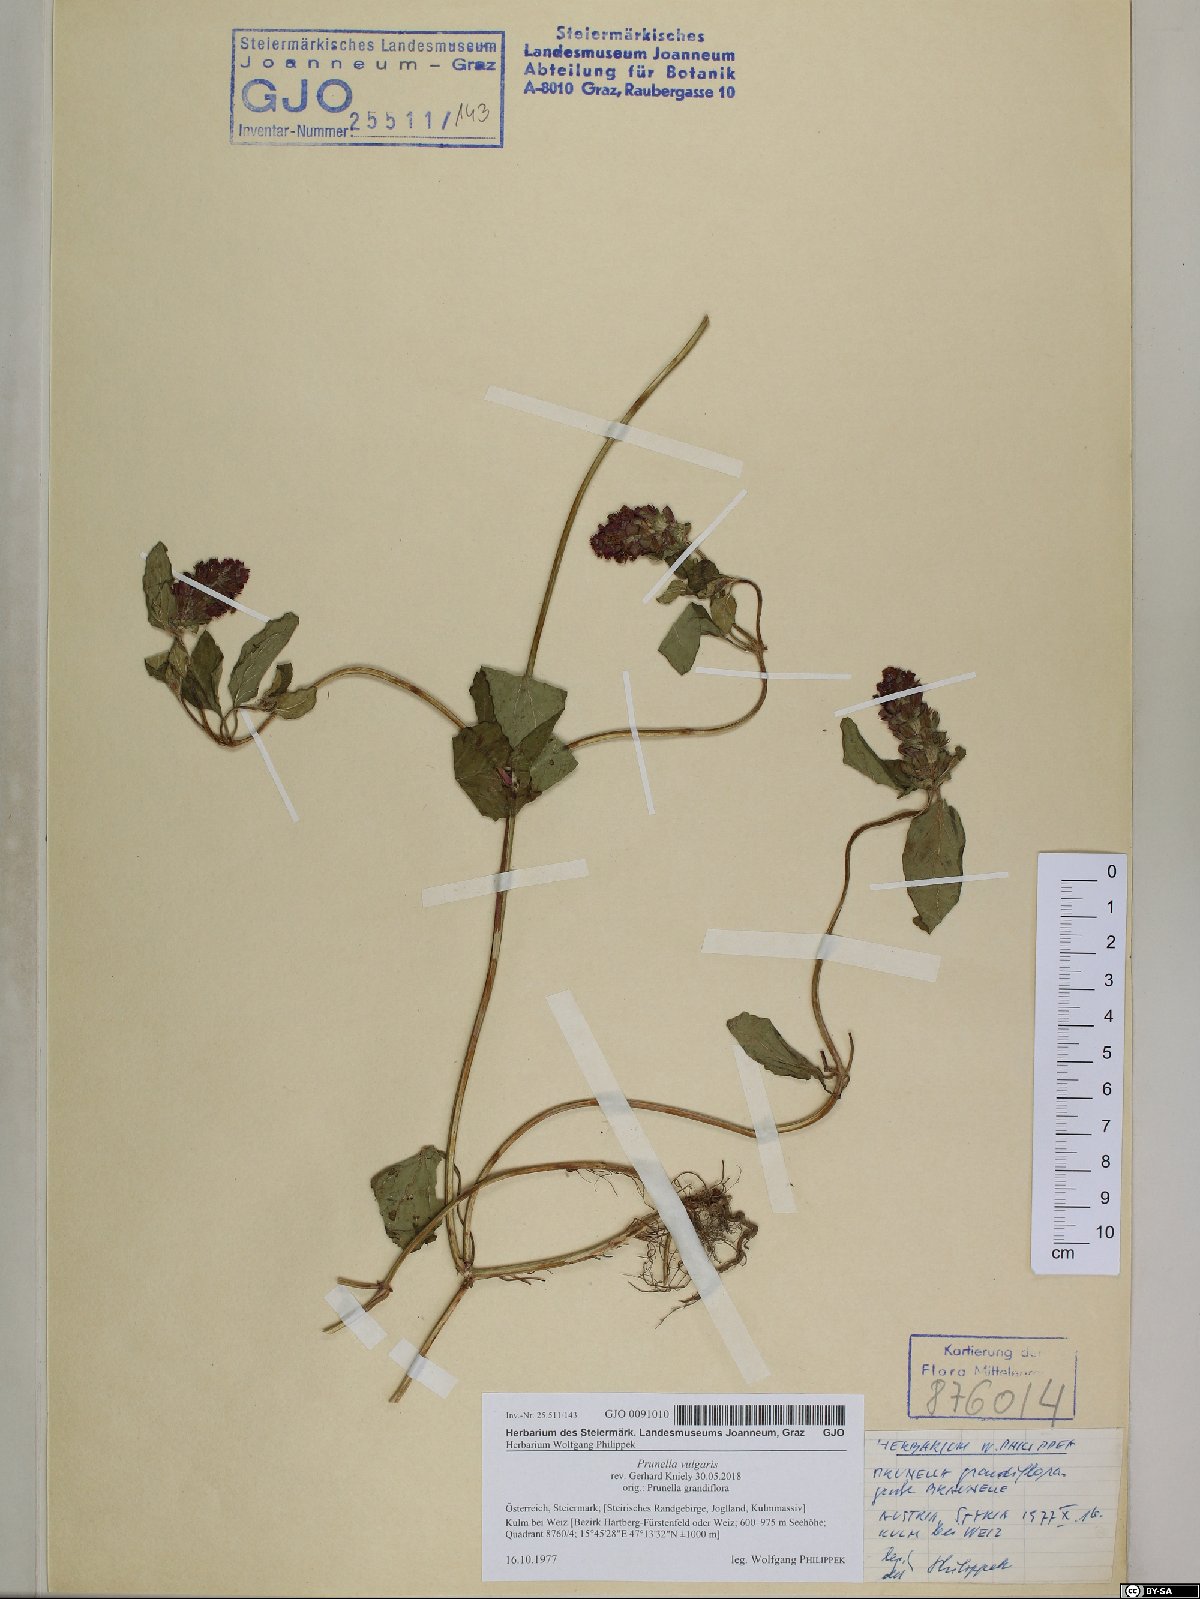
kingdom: Plantae
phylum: Tracheophyta
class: Magnoliopsida
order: Lamiales
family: Lamiaceae
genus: Prunella
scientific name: Prunella vulgaris
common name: Heal-all
